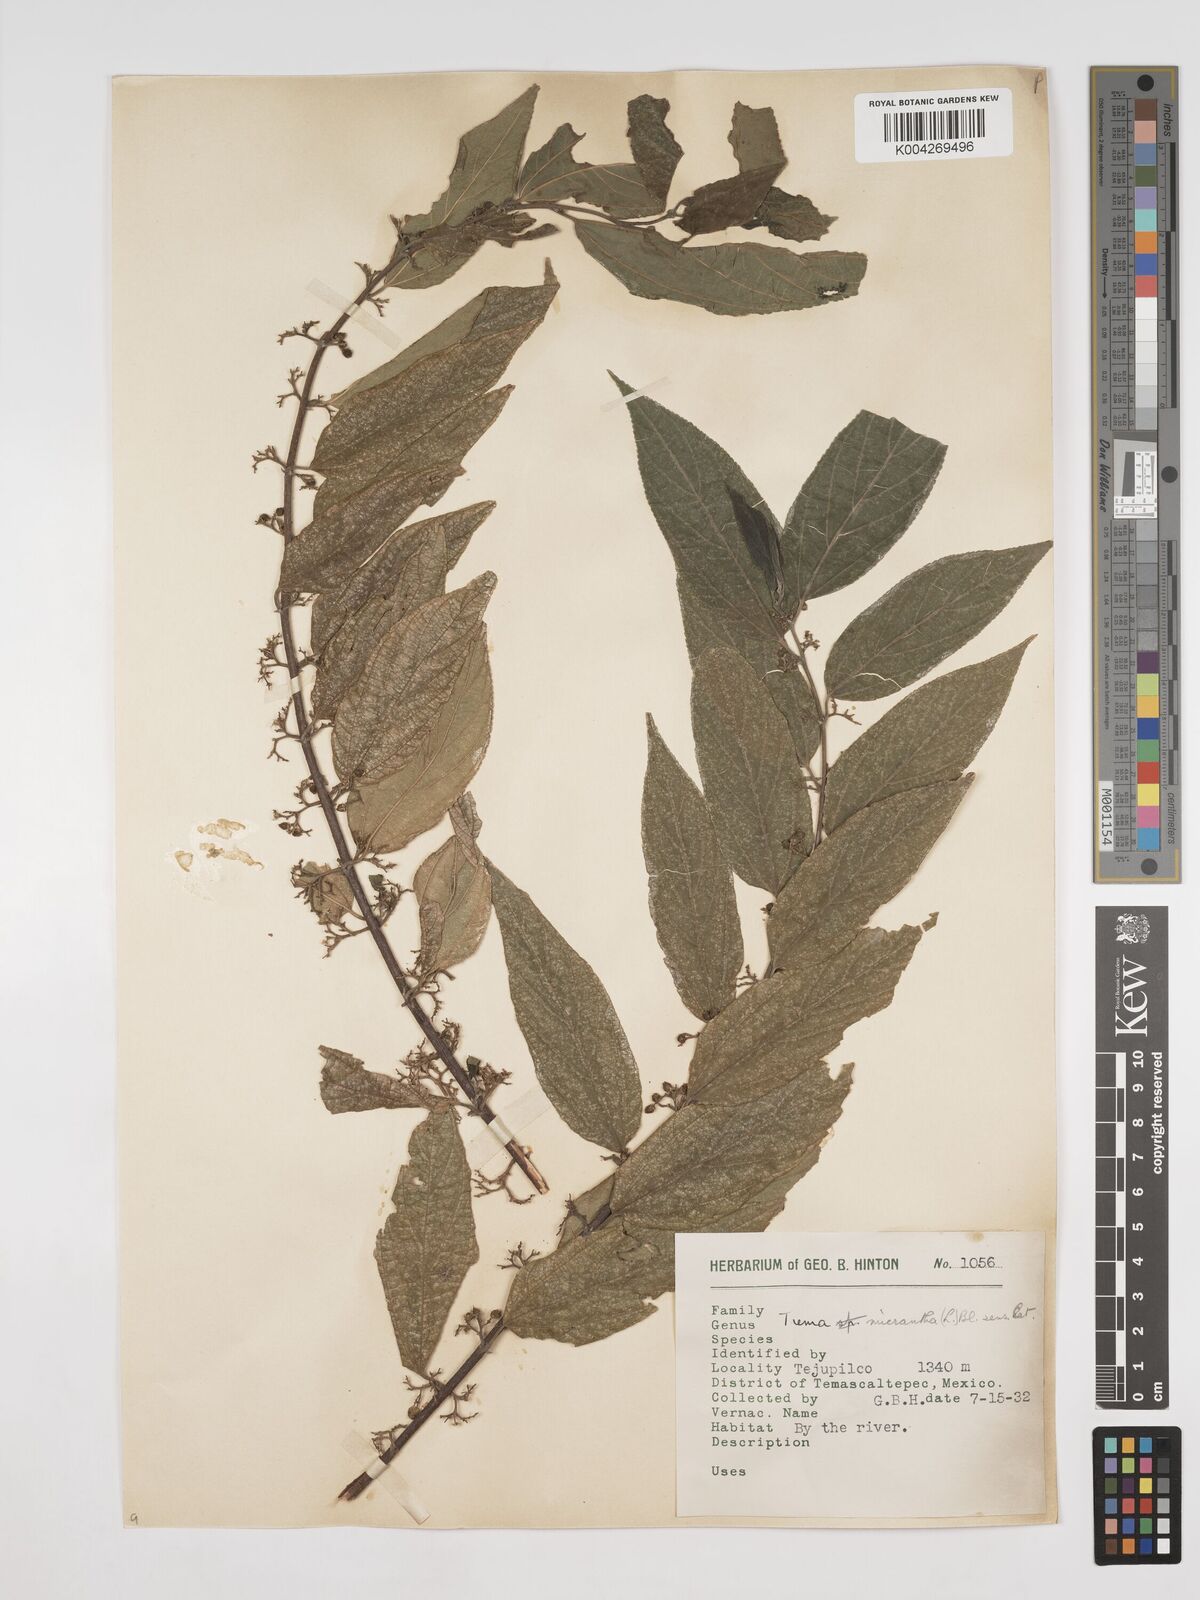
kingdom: Plantae
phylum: Tracheophyta
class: Magnoliopsida
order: Rosales
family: Cannabaceae
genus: Trema
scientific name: Trema micranthum
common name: Jamaican nettletree
